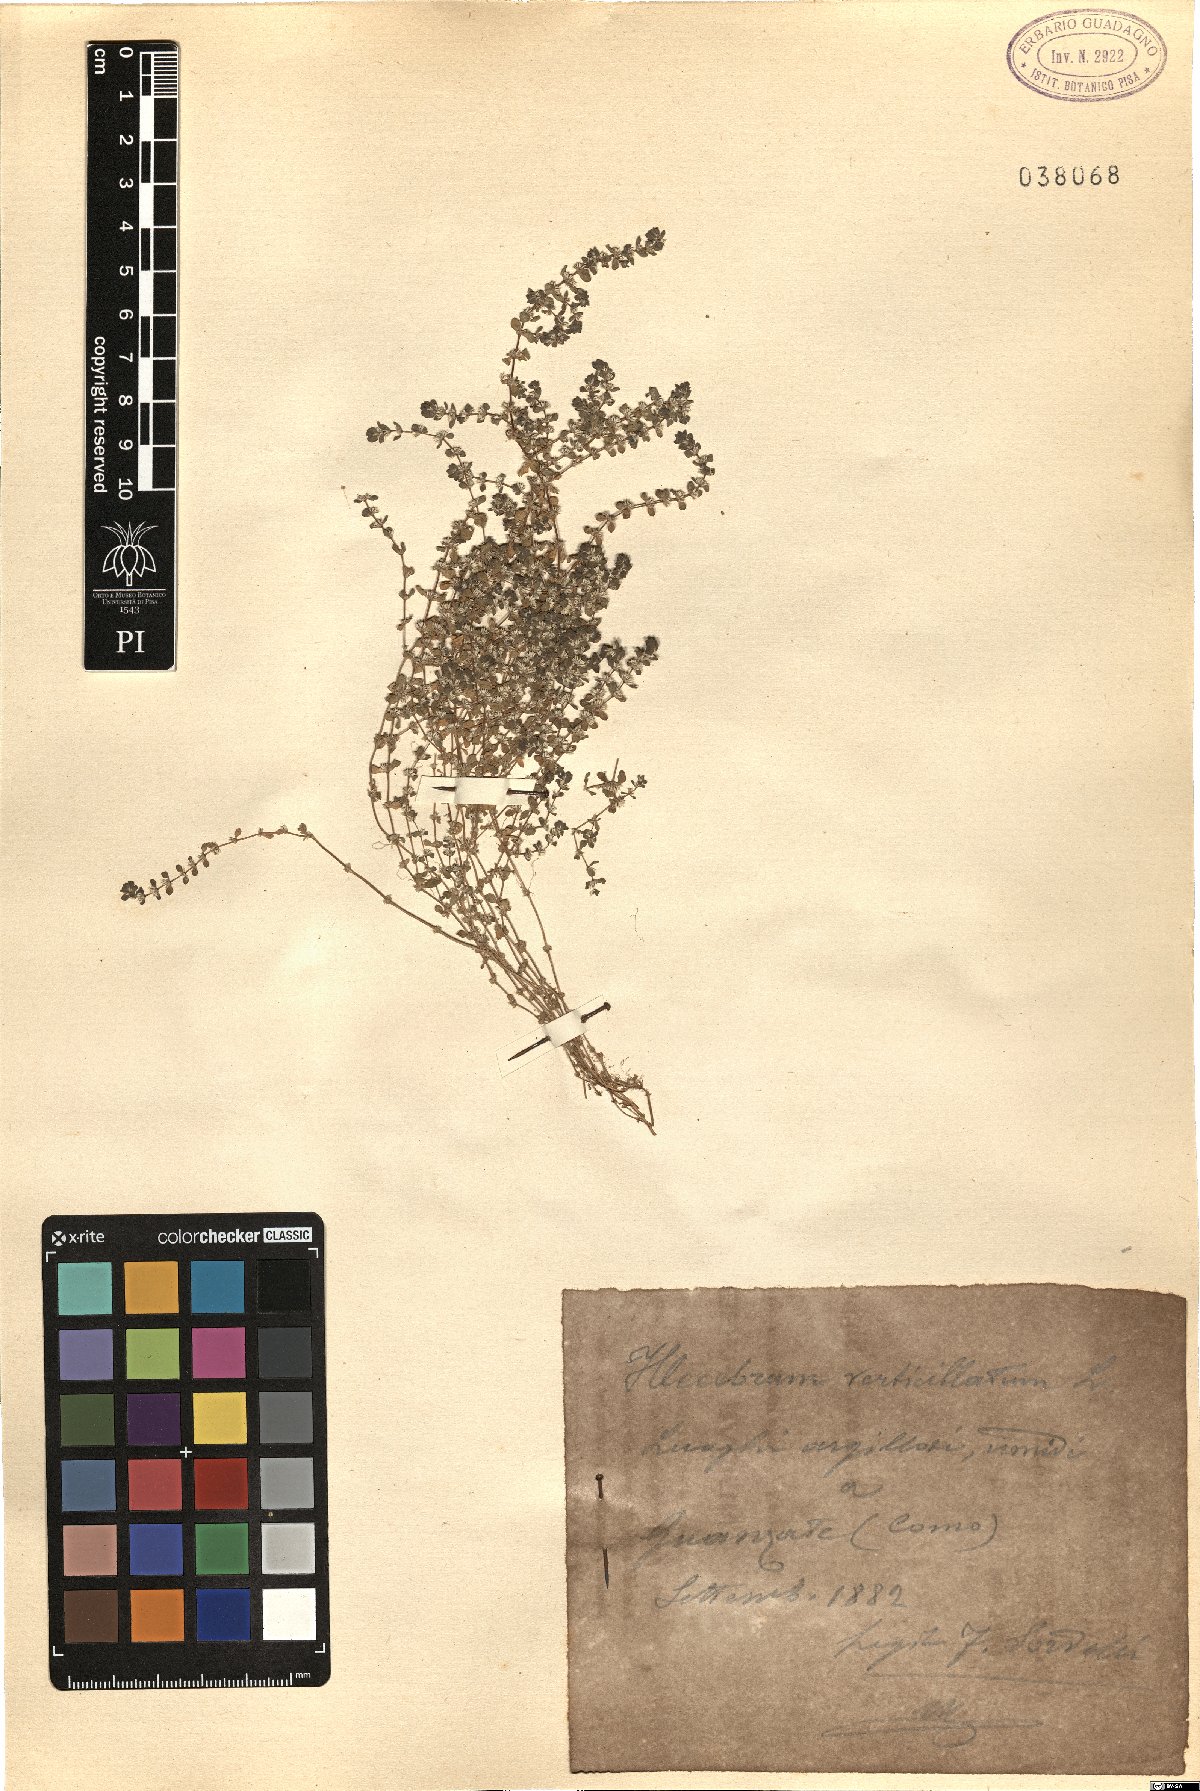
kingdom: Plantae
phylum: Tracheophyta
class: Magnoliopsida
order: Caryophyllales
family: Caryophyllaceae
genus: Illecebrum
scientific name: Illecebrum verticillatum
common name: Coral necklace
